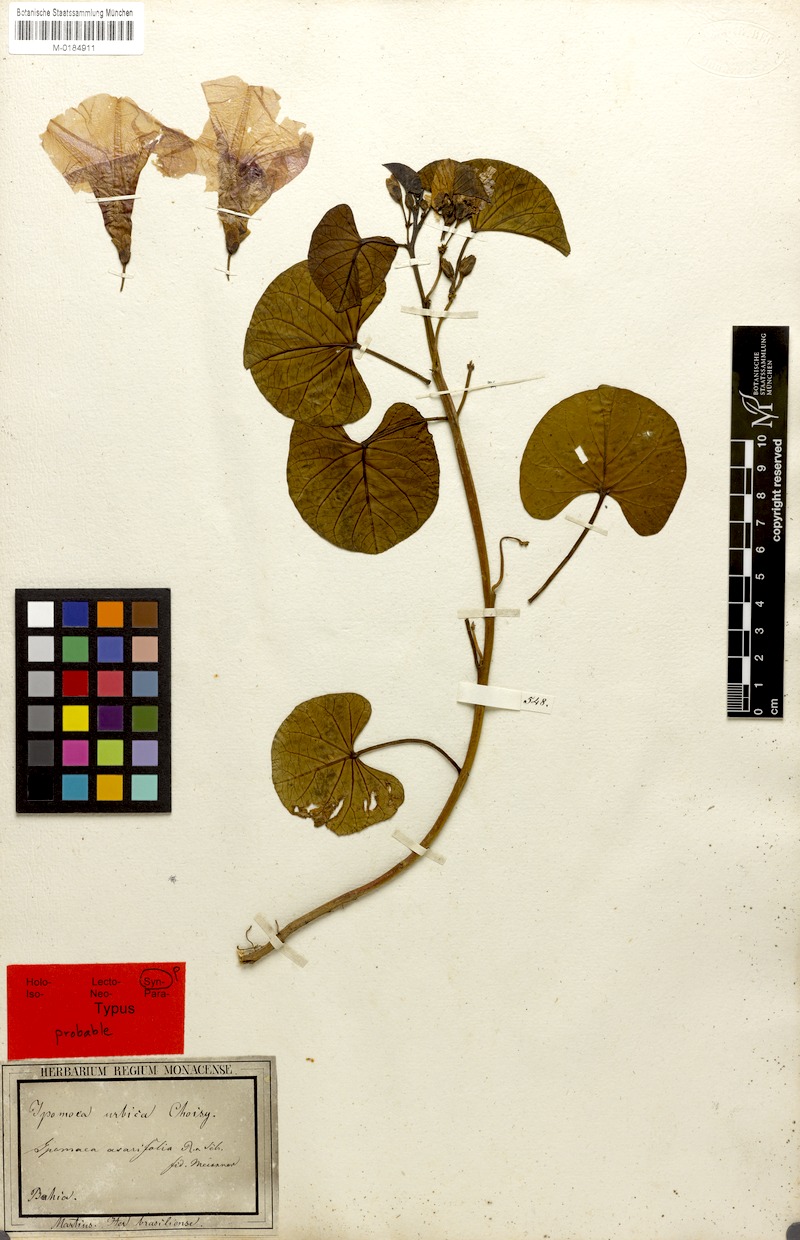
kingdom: Plantae
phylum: Tracheophyta
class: Magnoliopsida
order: Solanales
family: Convolvulaceae
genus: Ipomoea
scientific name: Ipomoea asarifolia
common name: Ginger-leaf morning-glory
